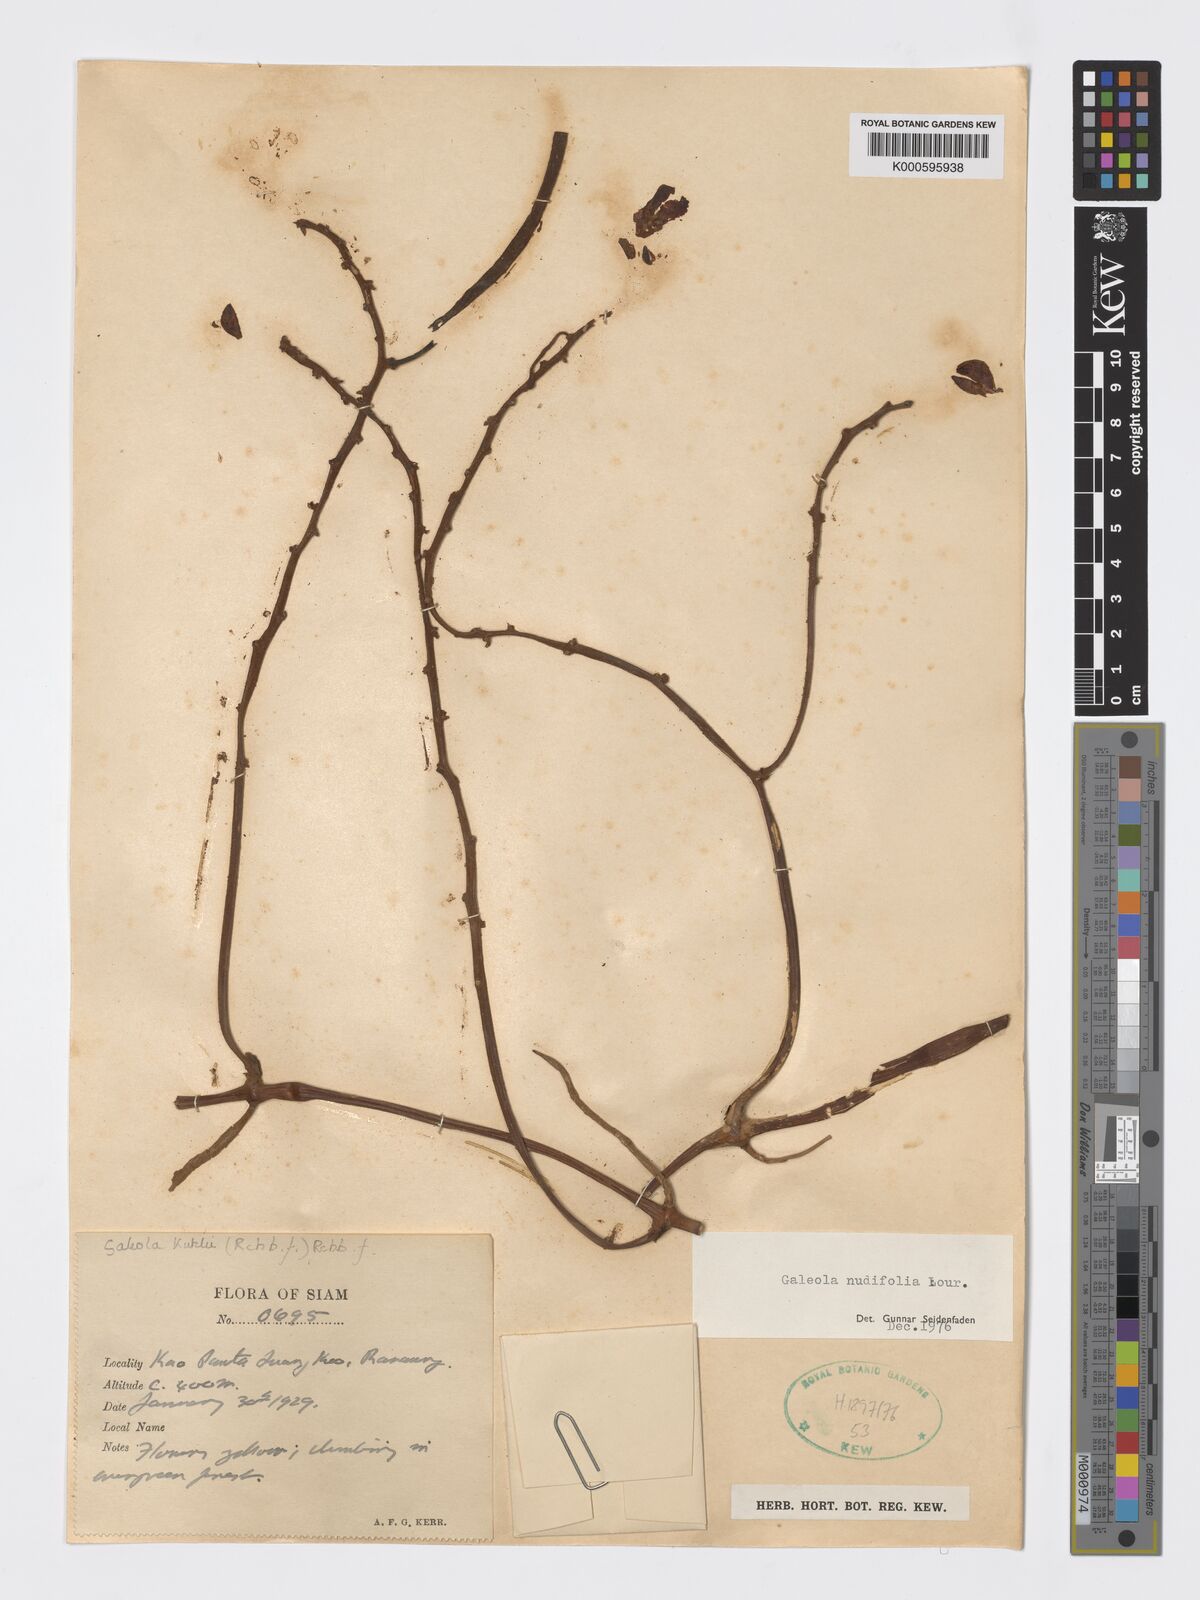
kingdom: Plantae
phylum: Tracheophyta
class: Liliopsida
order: Asparagales
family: Orchidaceae
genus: Galeola
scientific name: Galeola nudifolia
